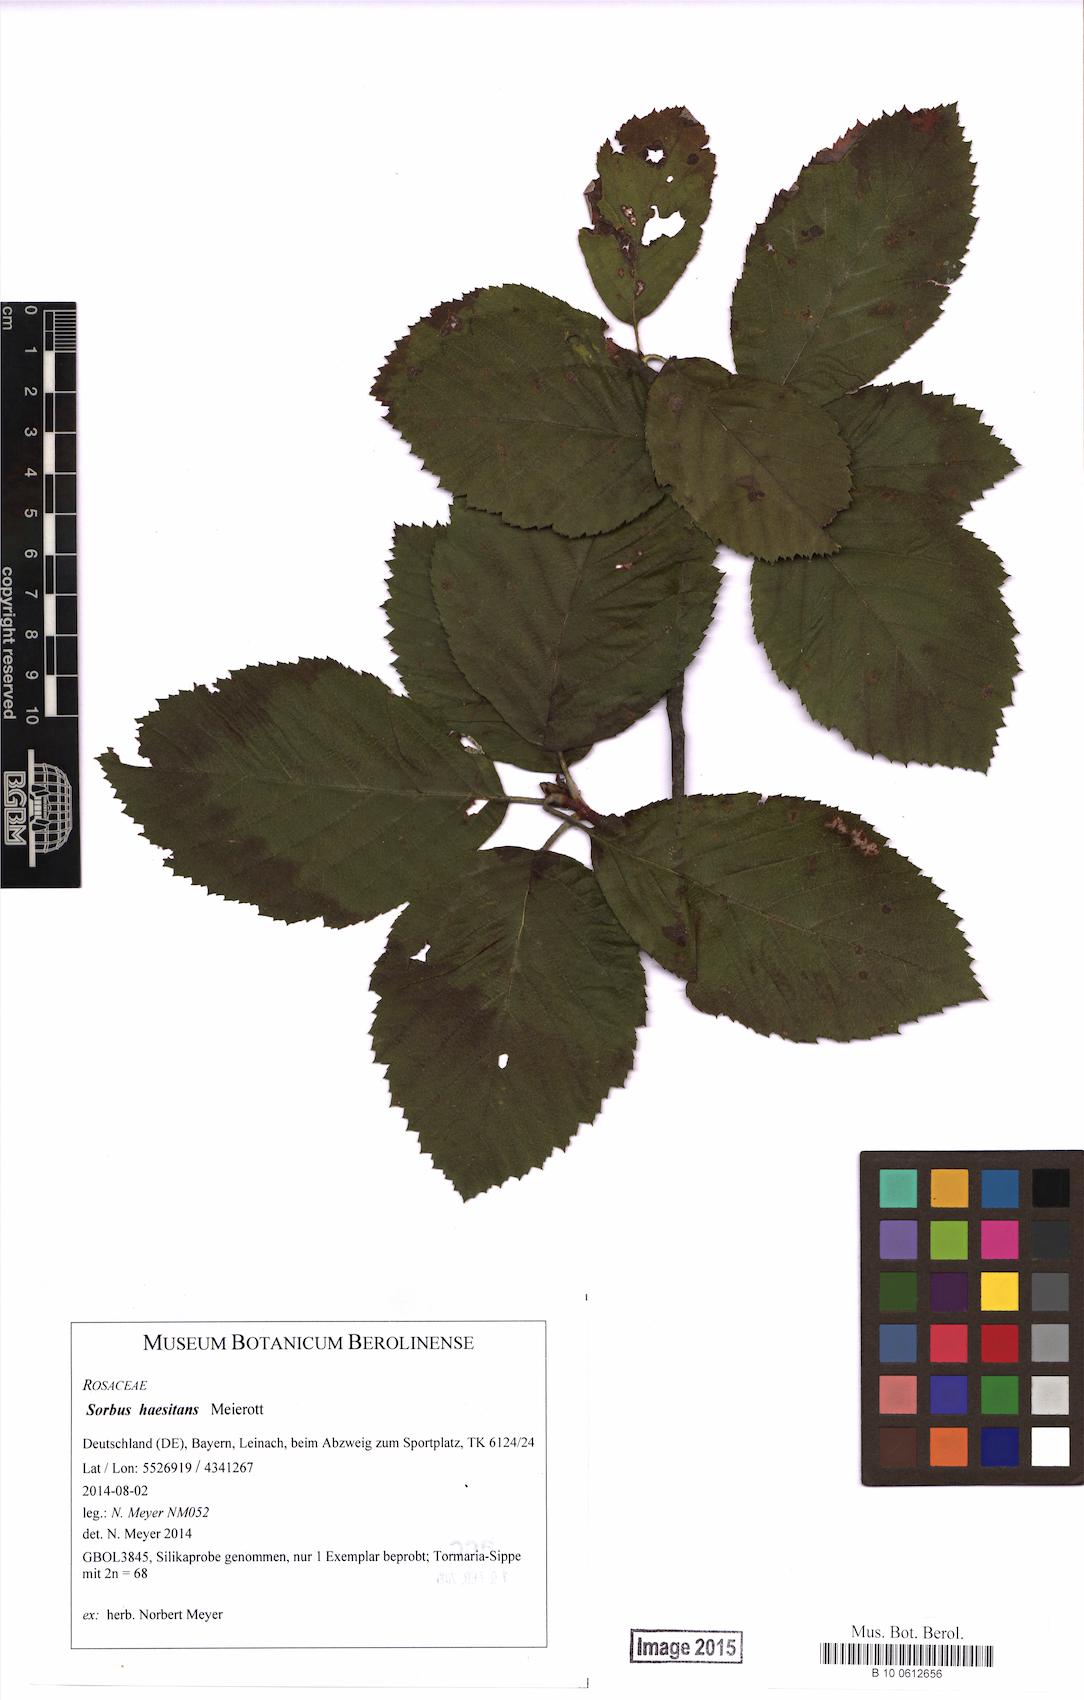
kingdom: Plantae
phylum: Tracheophyta
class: Magnoliopsida
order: Rosales
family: Rosaceae
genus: Karpatiosorbus
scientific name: Karpatiosorbus haesitans
